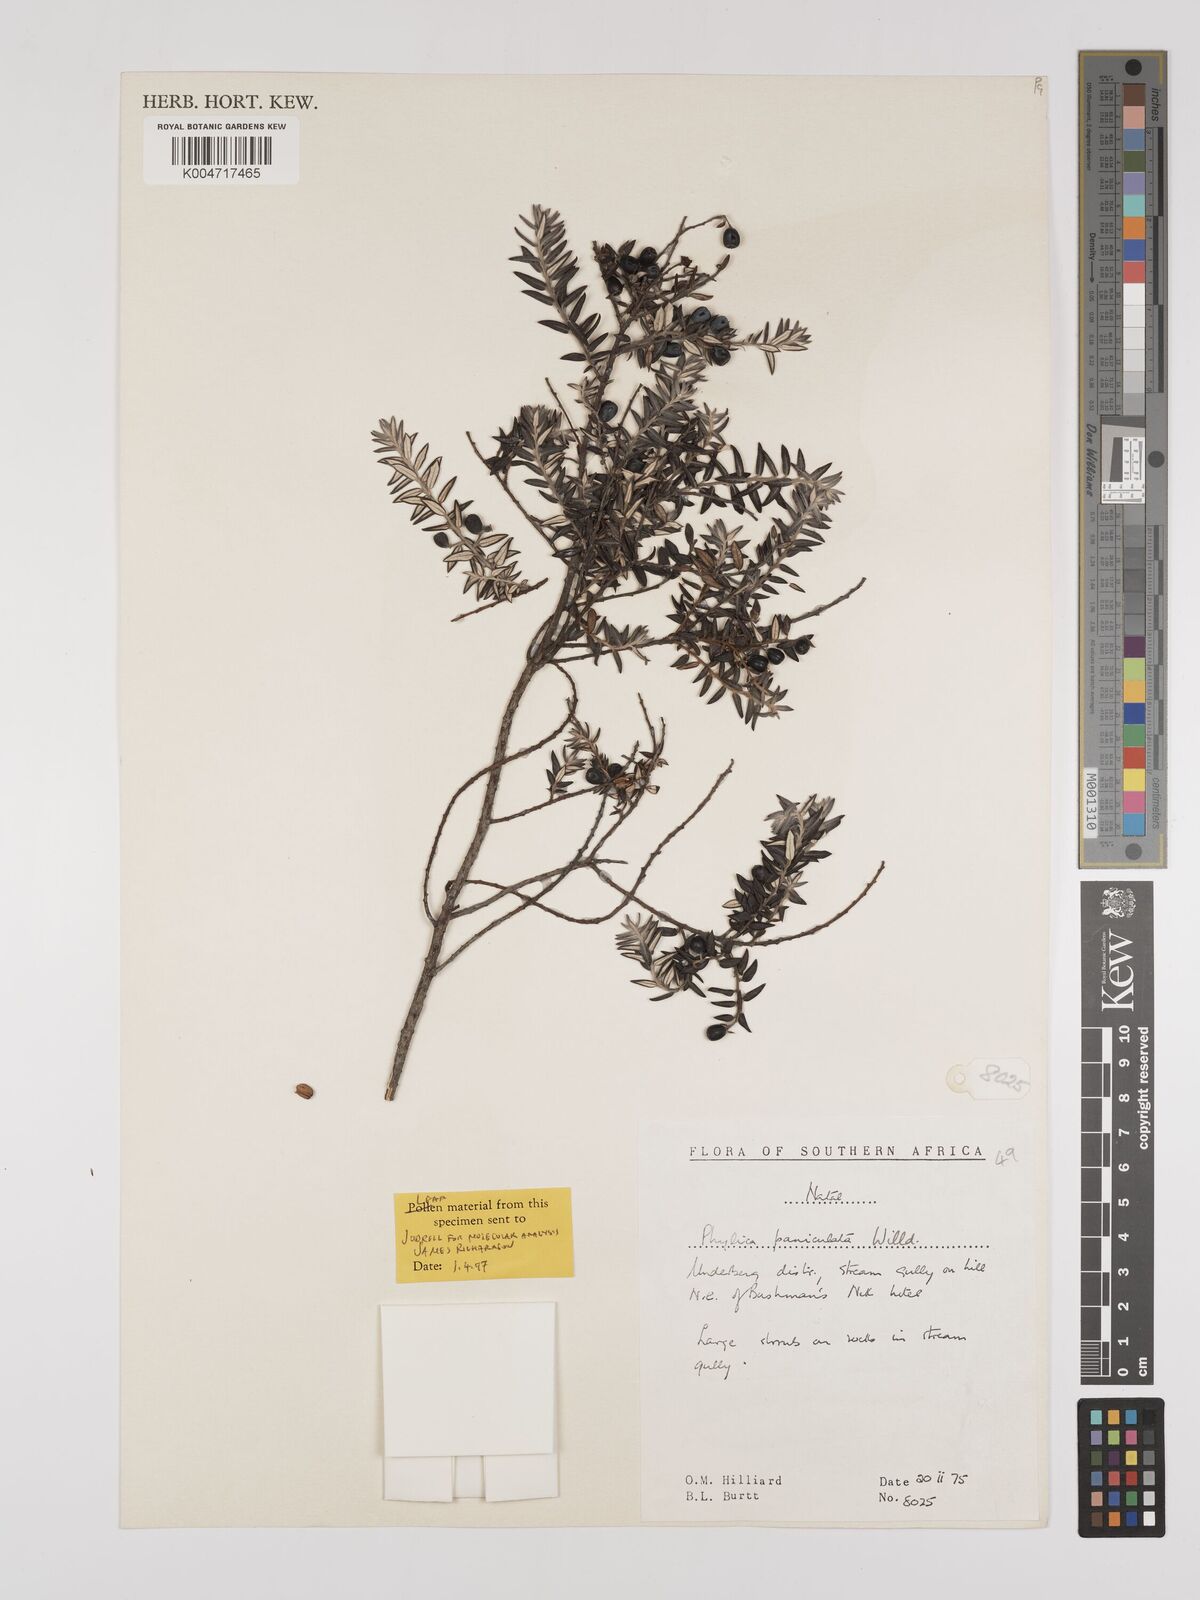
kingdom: Plantae
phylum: Tracheophyta
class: Magnoliopsida
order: Rosales
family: Rhamnaceae
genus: Phylica
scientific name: Phylica paniculata
